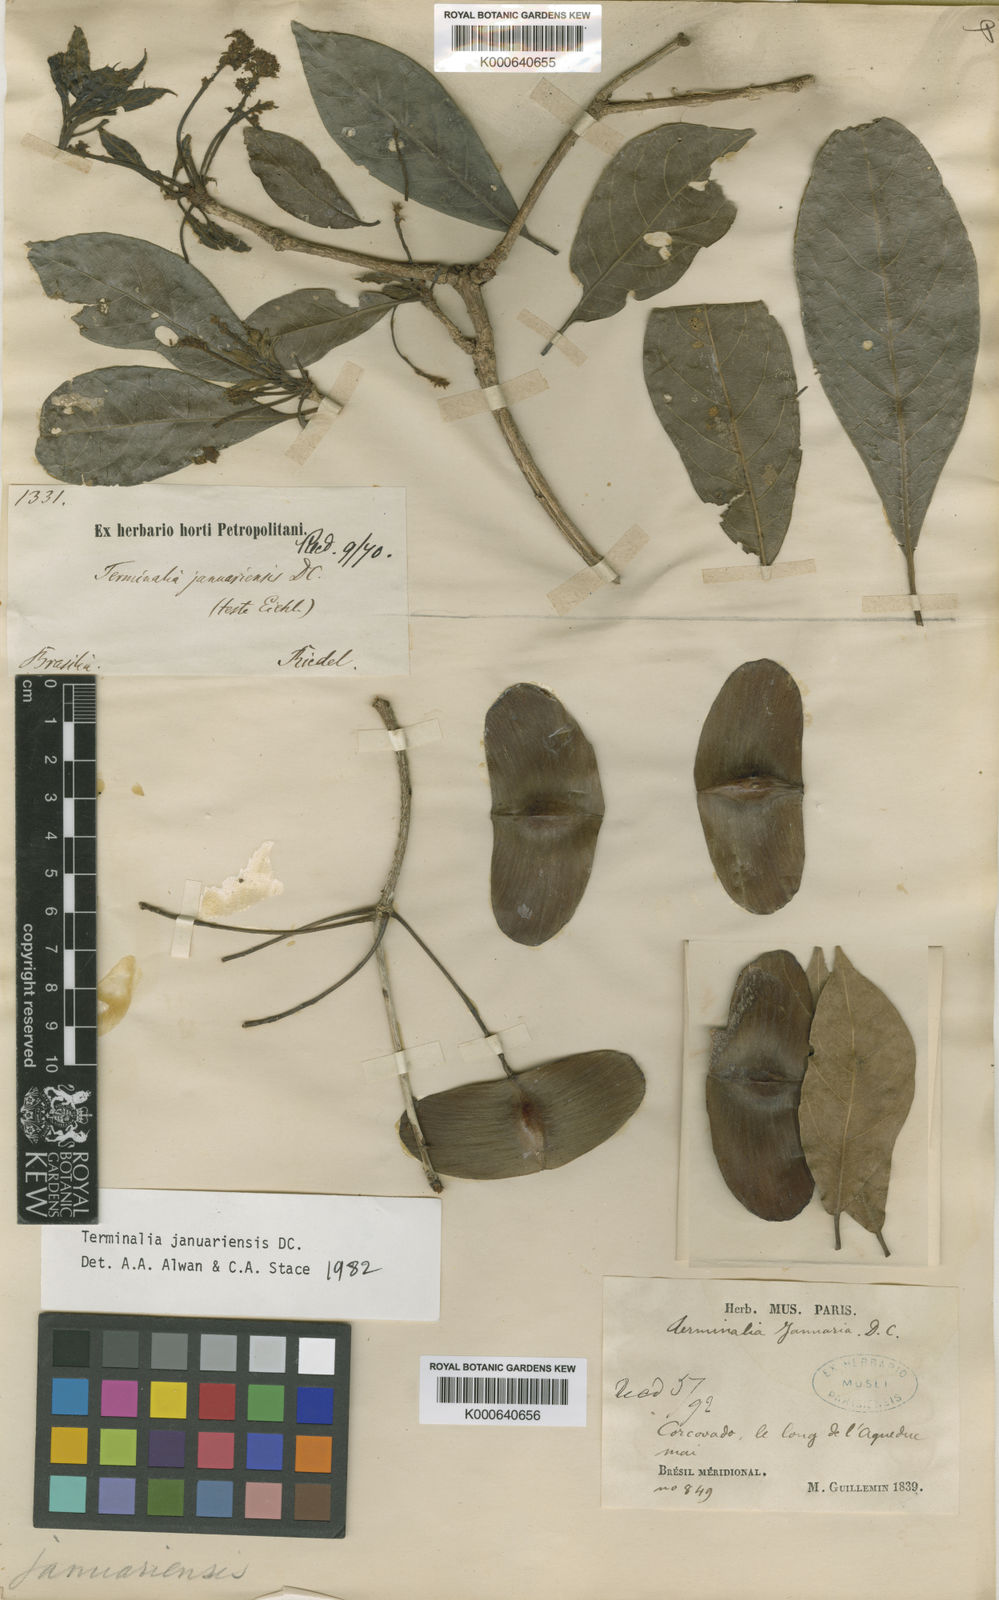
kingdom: Plantae
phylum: Tracheophyta
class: Magnoliopsida
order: Myrtales
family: Combretaceae
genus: Terminalia
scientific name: Terminalia januarensis
